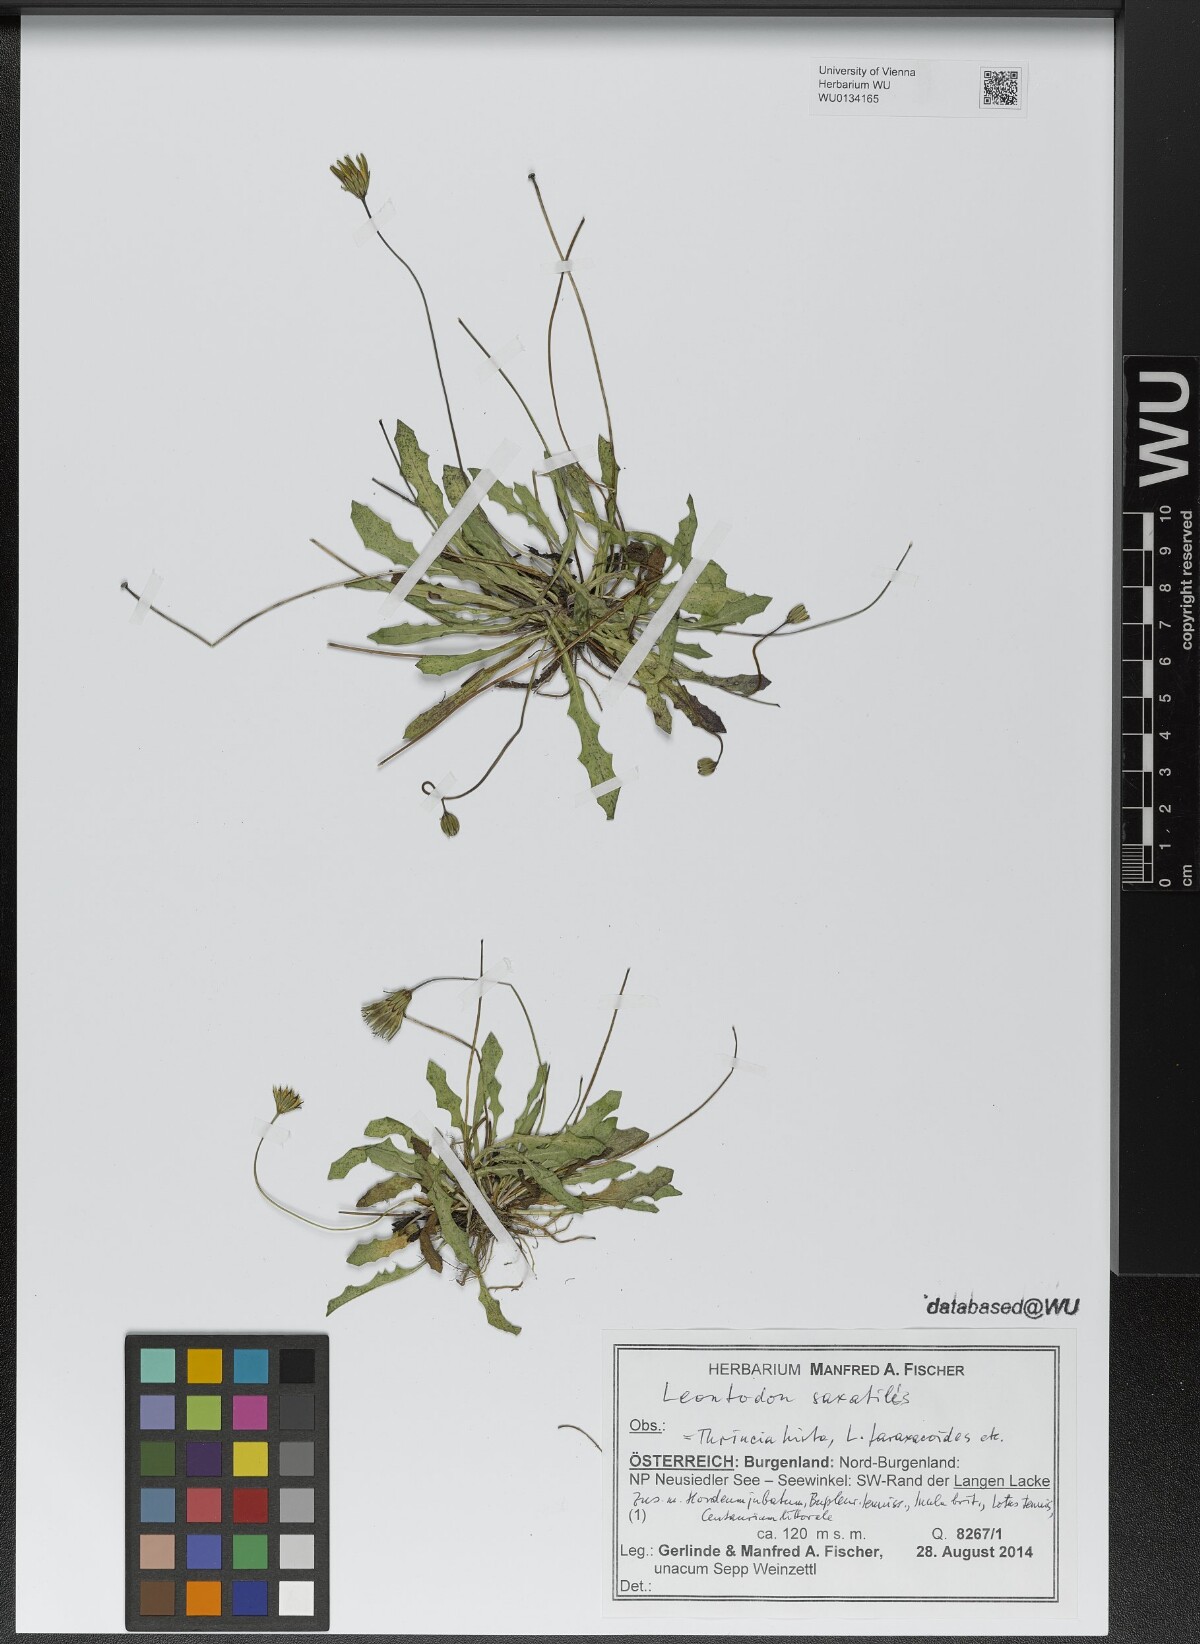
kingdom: Plantae
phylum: Tracheophyta
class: Magnoliopsida
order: Asterales
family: Asteraceae
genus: Thrincia
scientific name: Thrincia saxatilis
